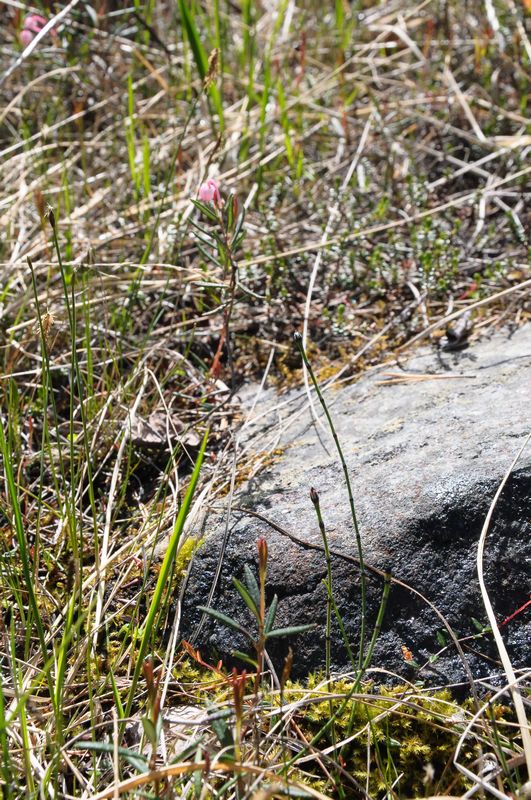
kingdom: Plantae
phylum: Tracheophyta
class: Polypodiopsida
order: Equisetales
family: Equisetaceae
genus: Equisetum
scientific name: Equisetum variegatum
